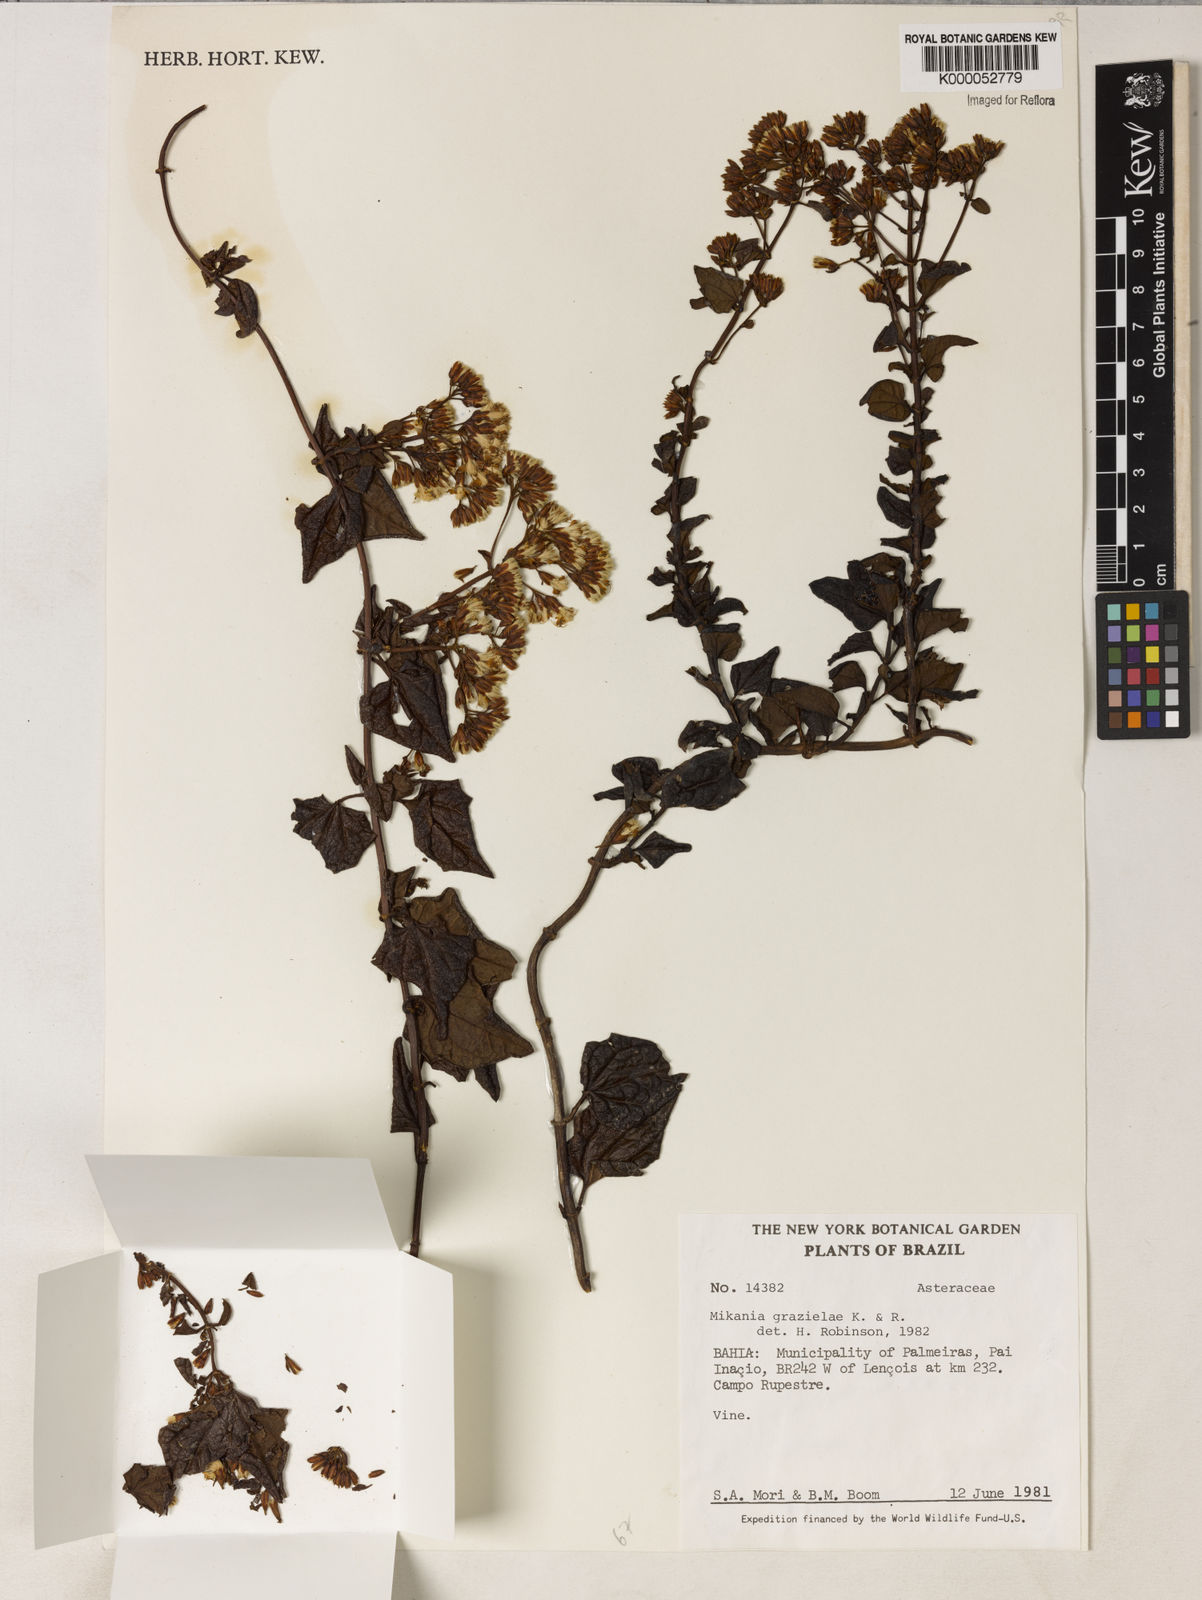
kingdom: Plantae
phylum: Tracheophyta
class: Magnoliopsida
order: Asterales
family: Asteraceae
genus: Mikania
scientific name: Mikania grazielae
